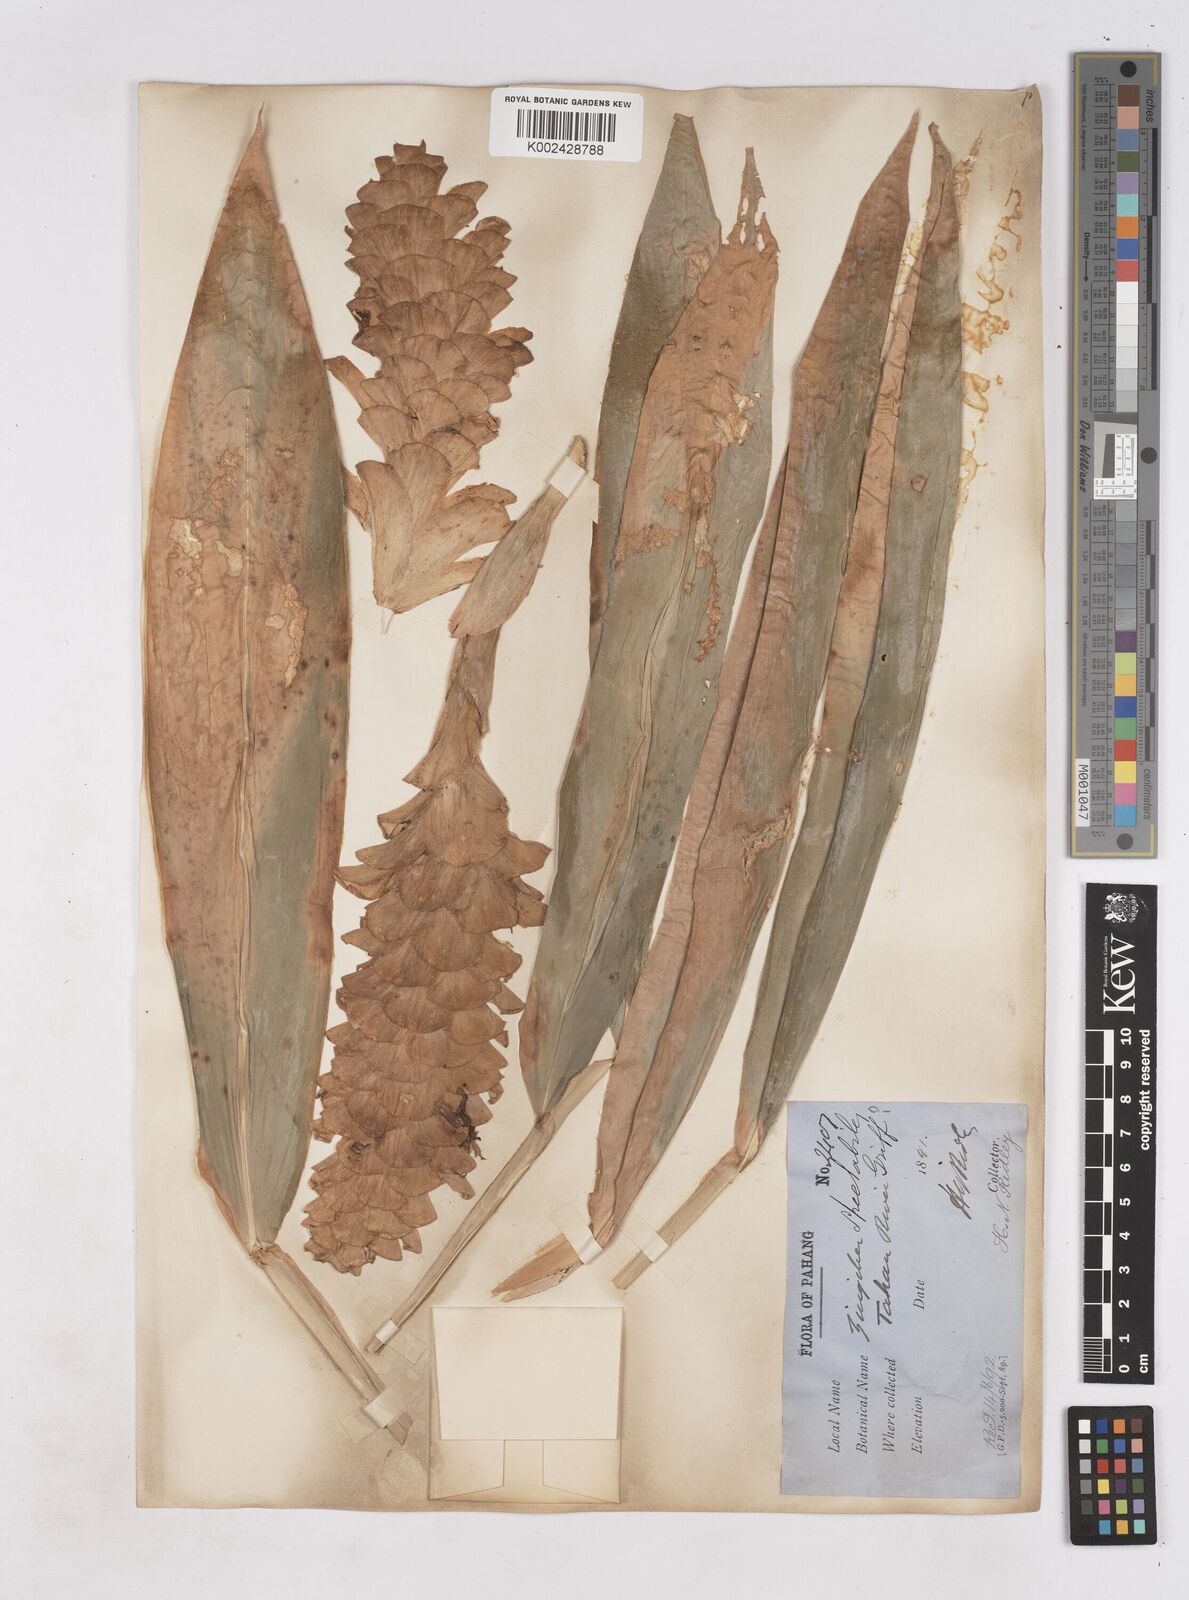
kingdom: Plantae
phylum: Tracheophyta
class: Liliopsida
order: Zingiberales
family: Zingiberaceae
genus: Zingiber
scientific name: Zingiber spectabile
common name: Beehive ginger
